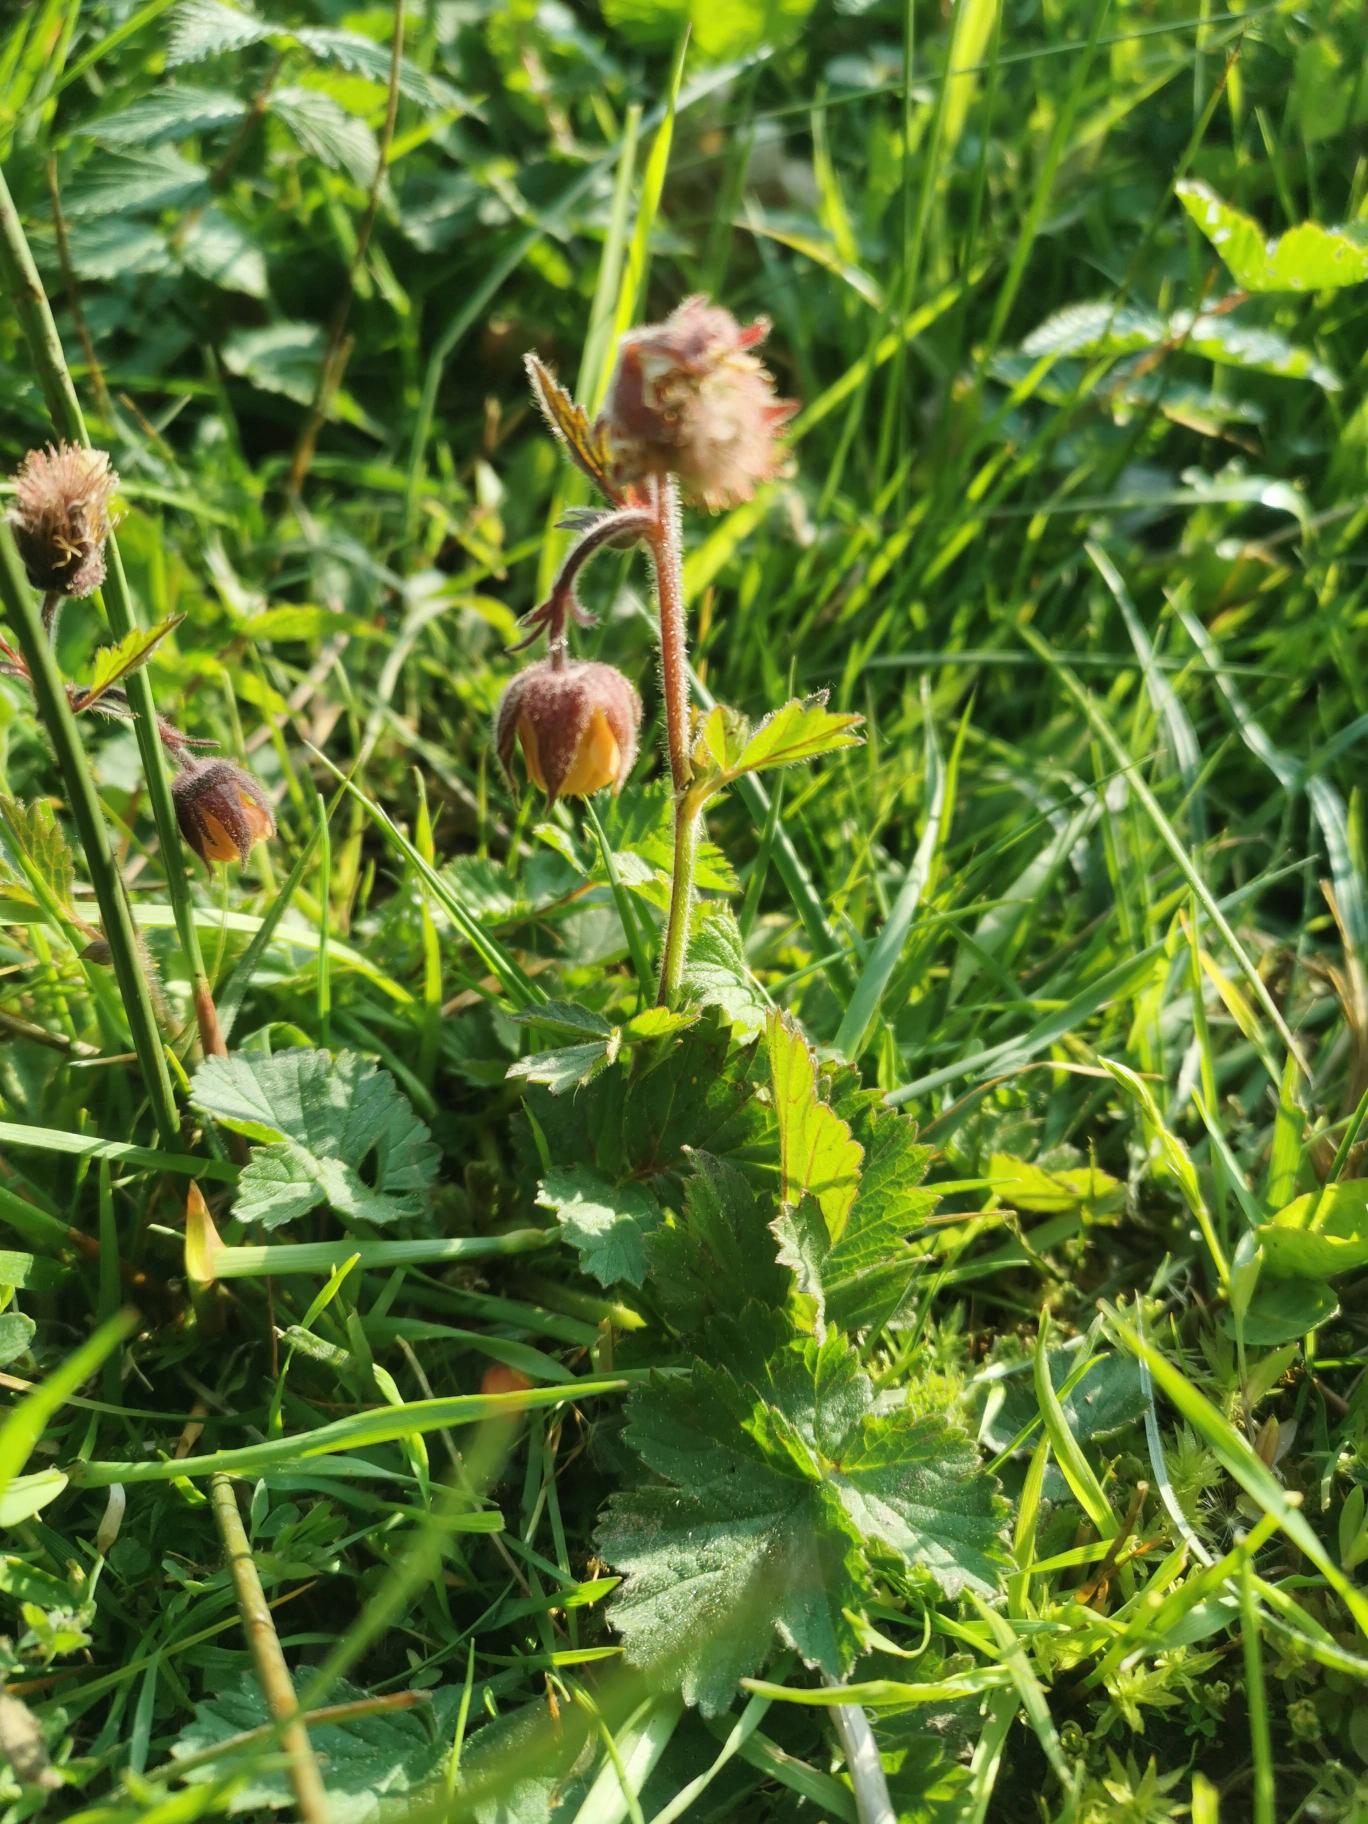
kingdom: Plantae
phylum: Tracheophyta
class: Magnoliopsida
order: Rosales
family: Rosaceae
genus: Geum
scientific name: Geum rivale
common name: Eng-nellikerod
